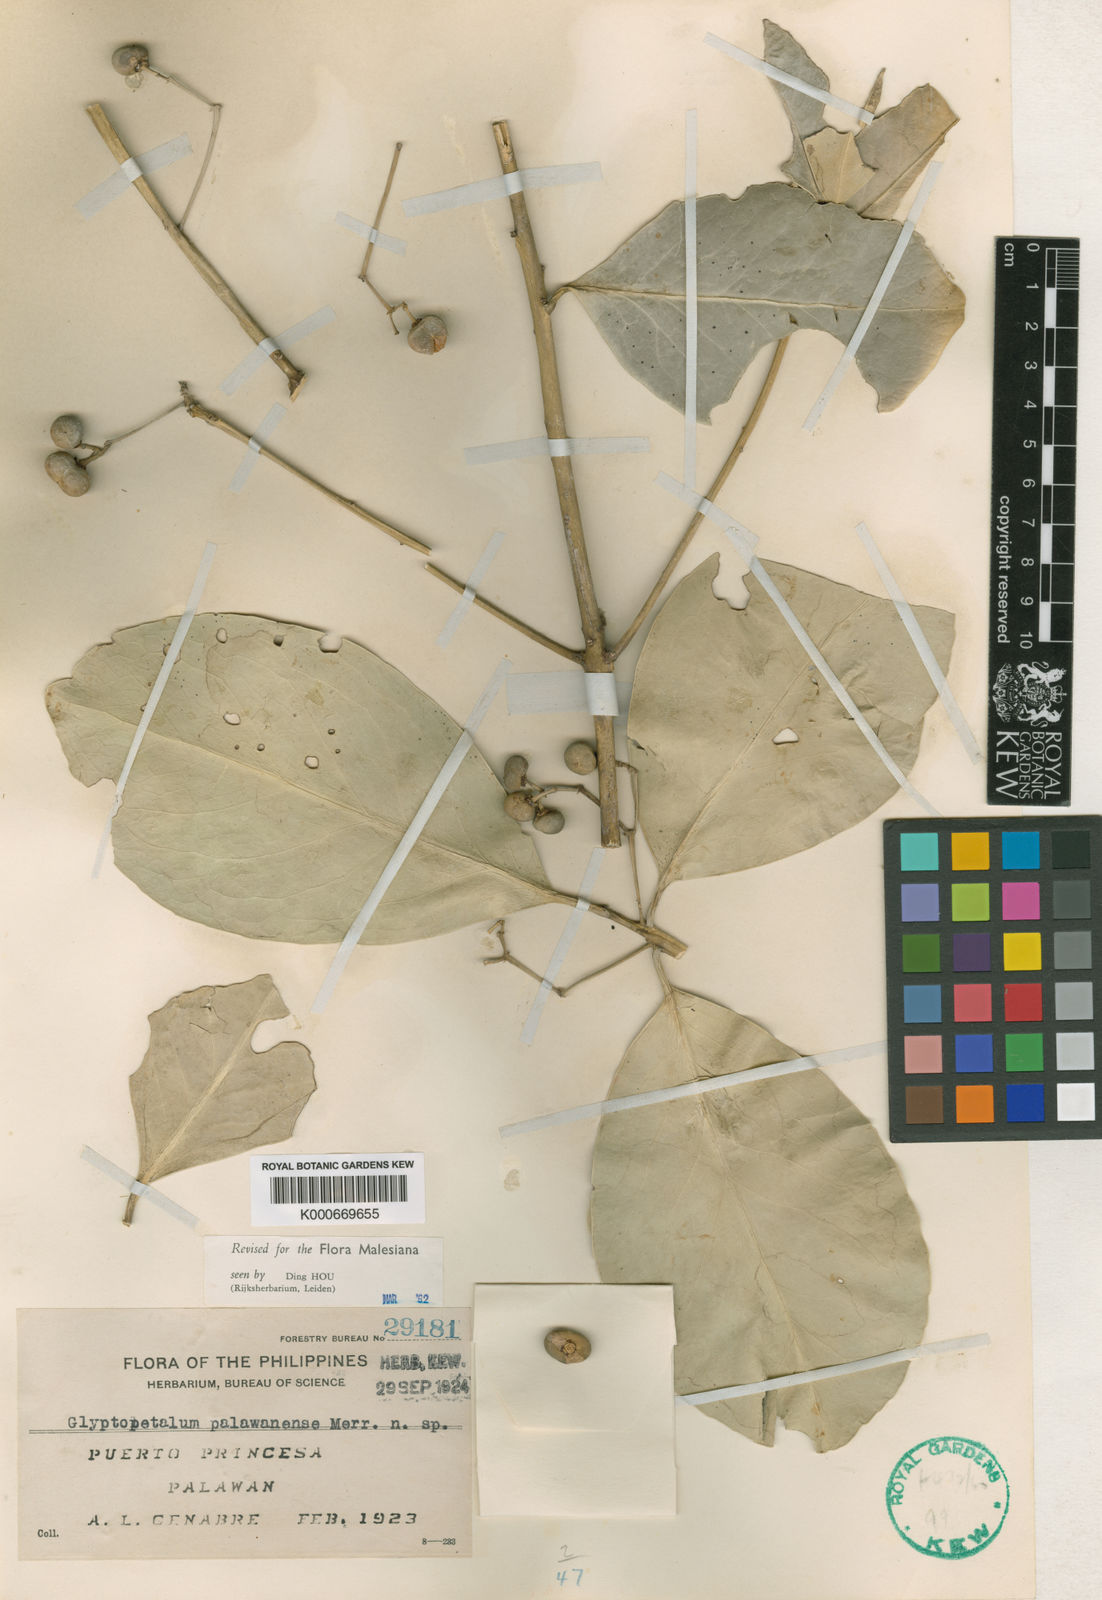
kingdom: Plantae
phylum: Tracheophyta
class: Magnoliopsida
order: Celastrales
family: Celastraceae
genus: Euonymus
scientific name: Euonymus palawanensis
